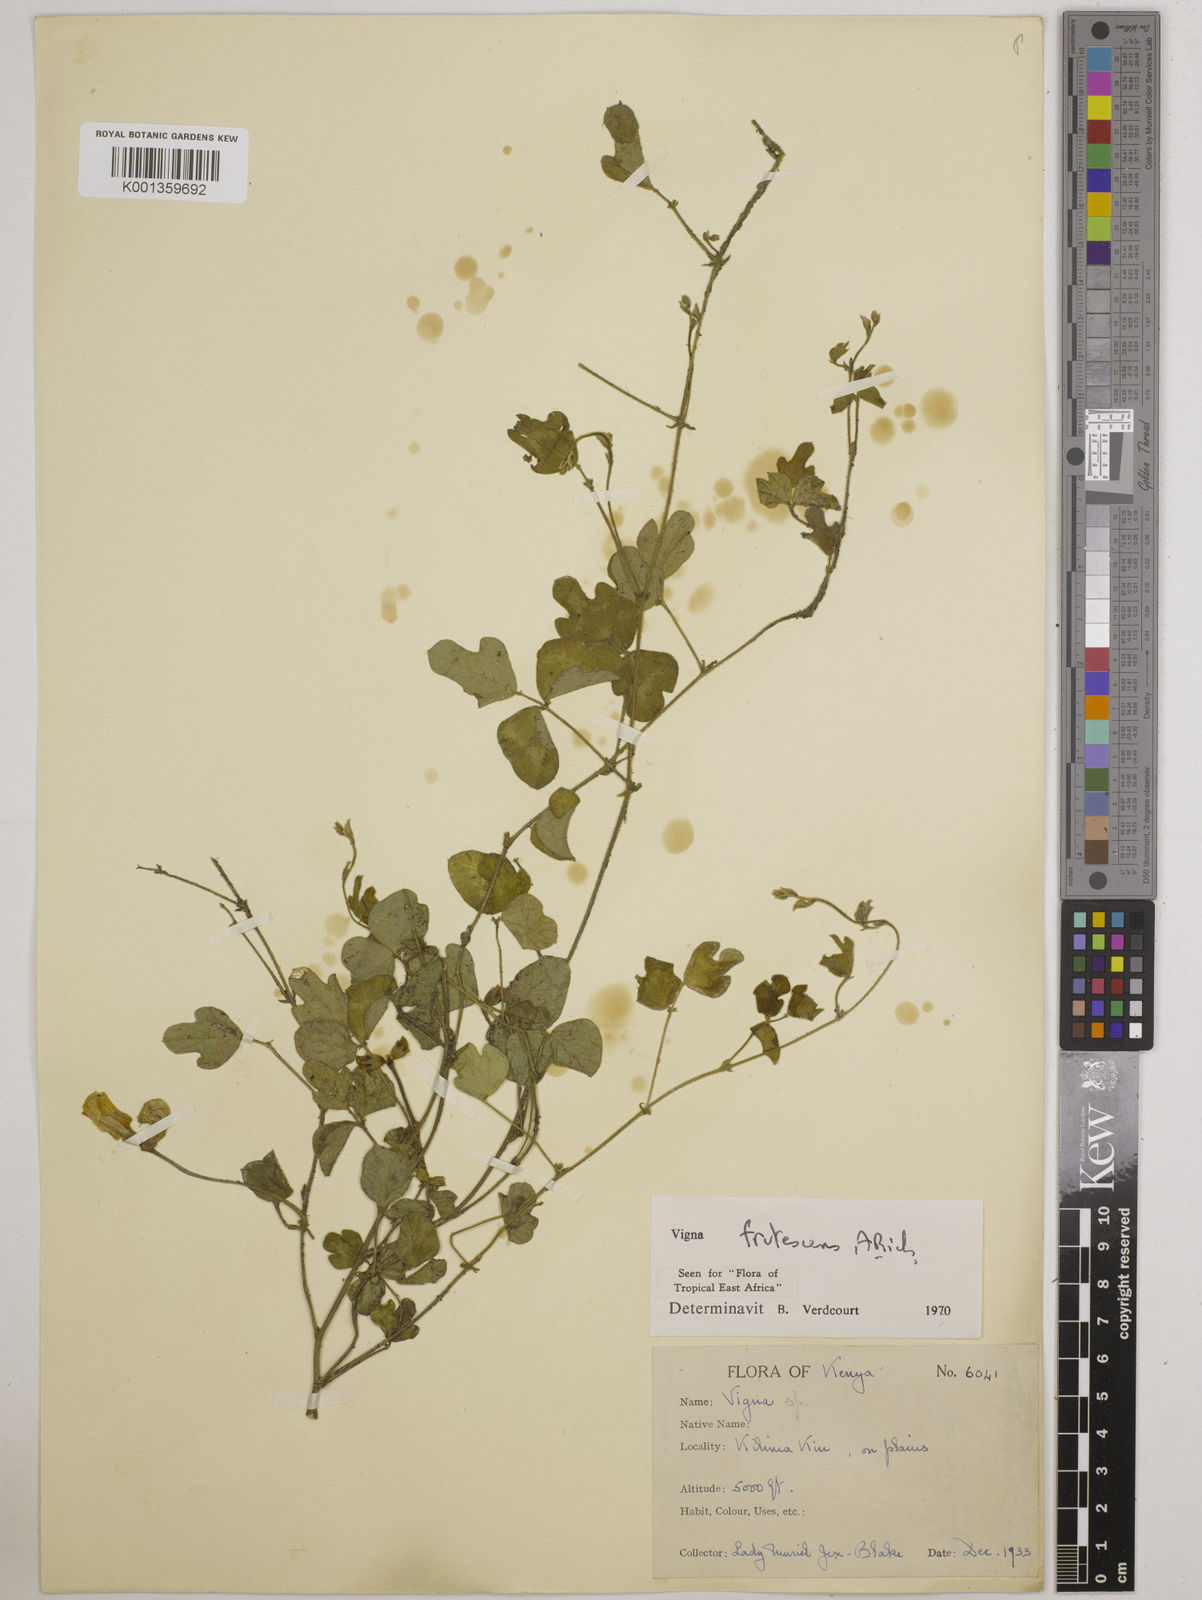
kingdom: Plantae
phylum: Tracheophyta
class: Magnoliopsida
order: Fabales
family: Fabaceae
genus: Vigna
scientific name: Vigna frutescens
